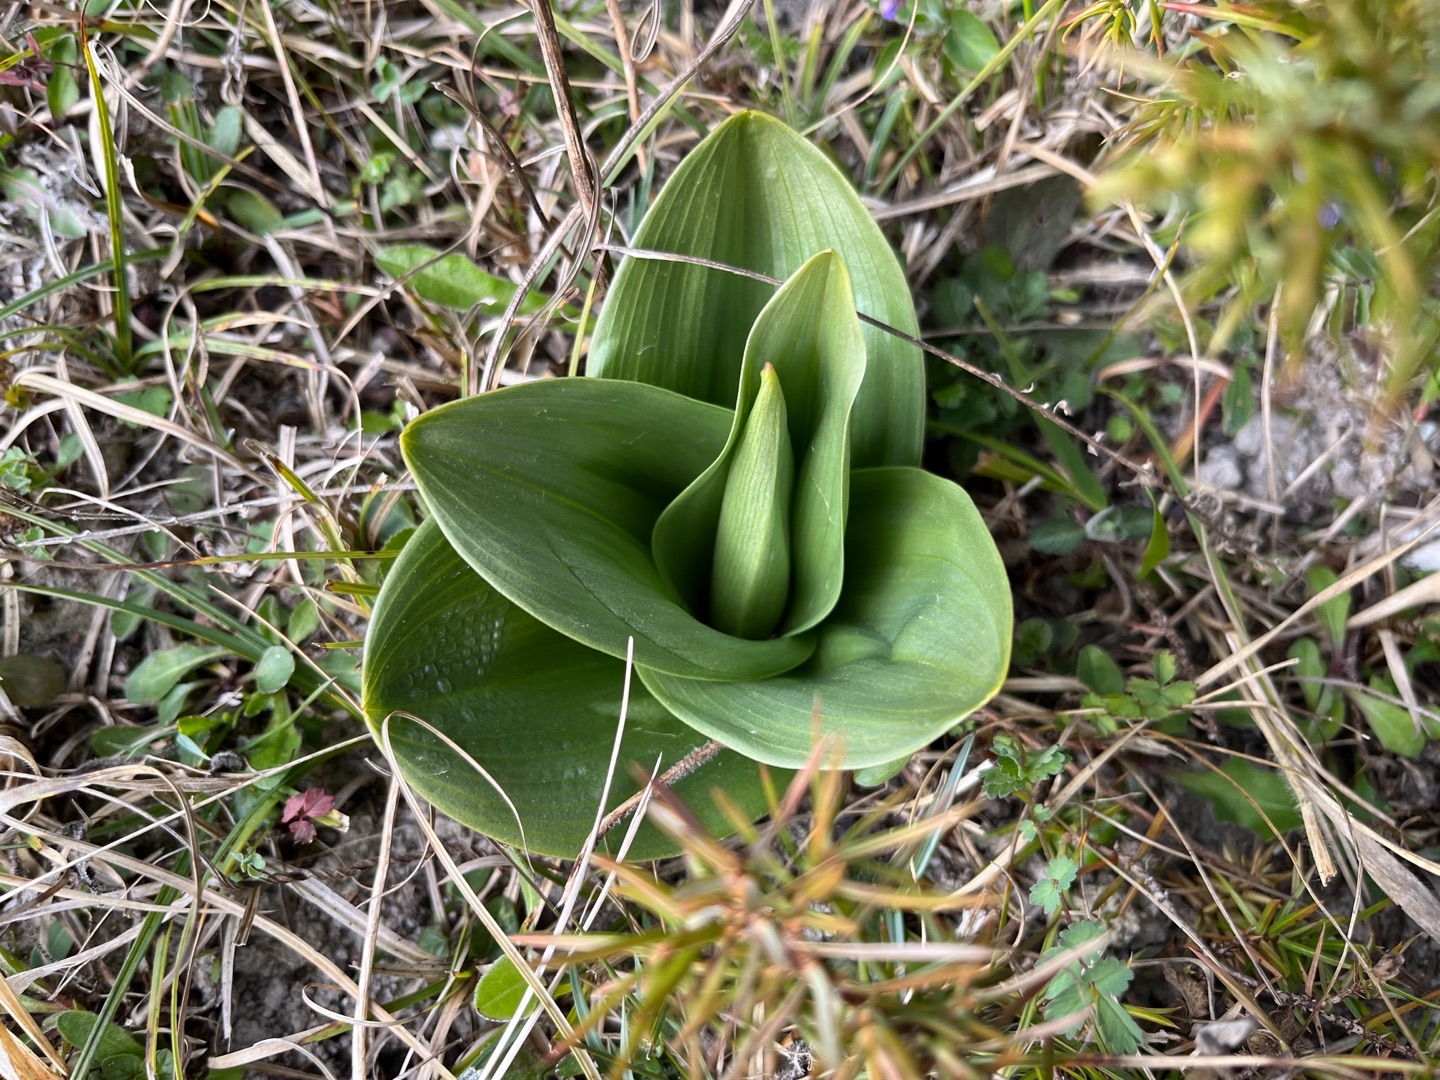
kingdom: Plantae
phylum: Tracheophyta
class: Liliopsida
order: Asparagales
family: Orchidaceae
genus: Orchis
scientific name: Orchis purpurea
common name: Stor gøgeurt
